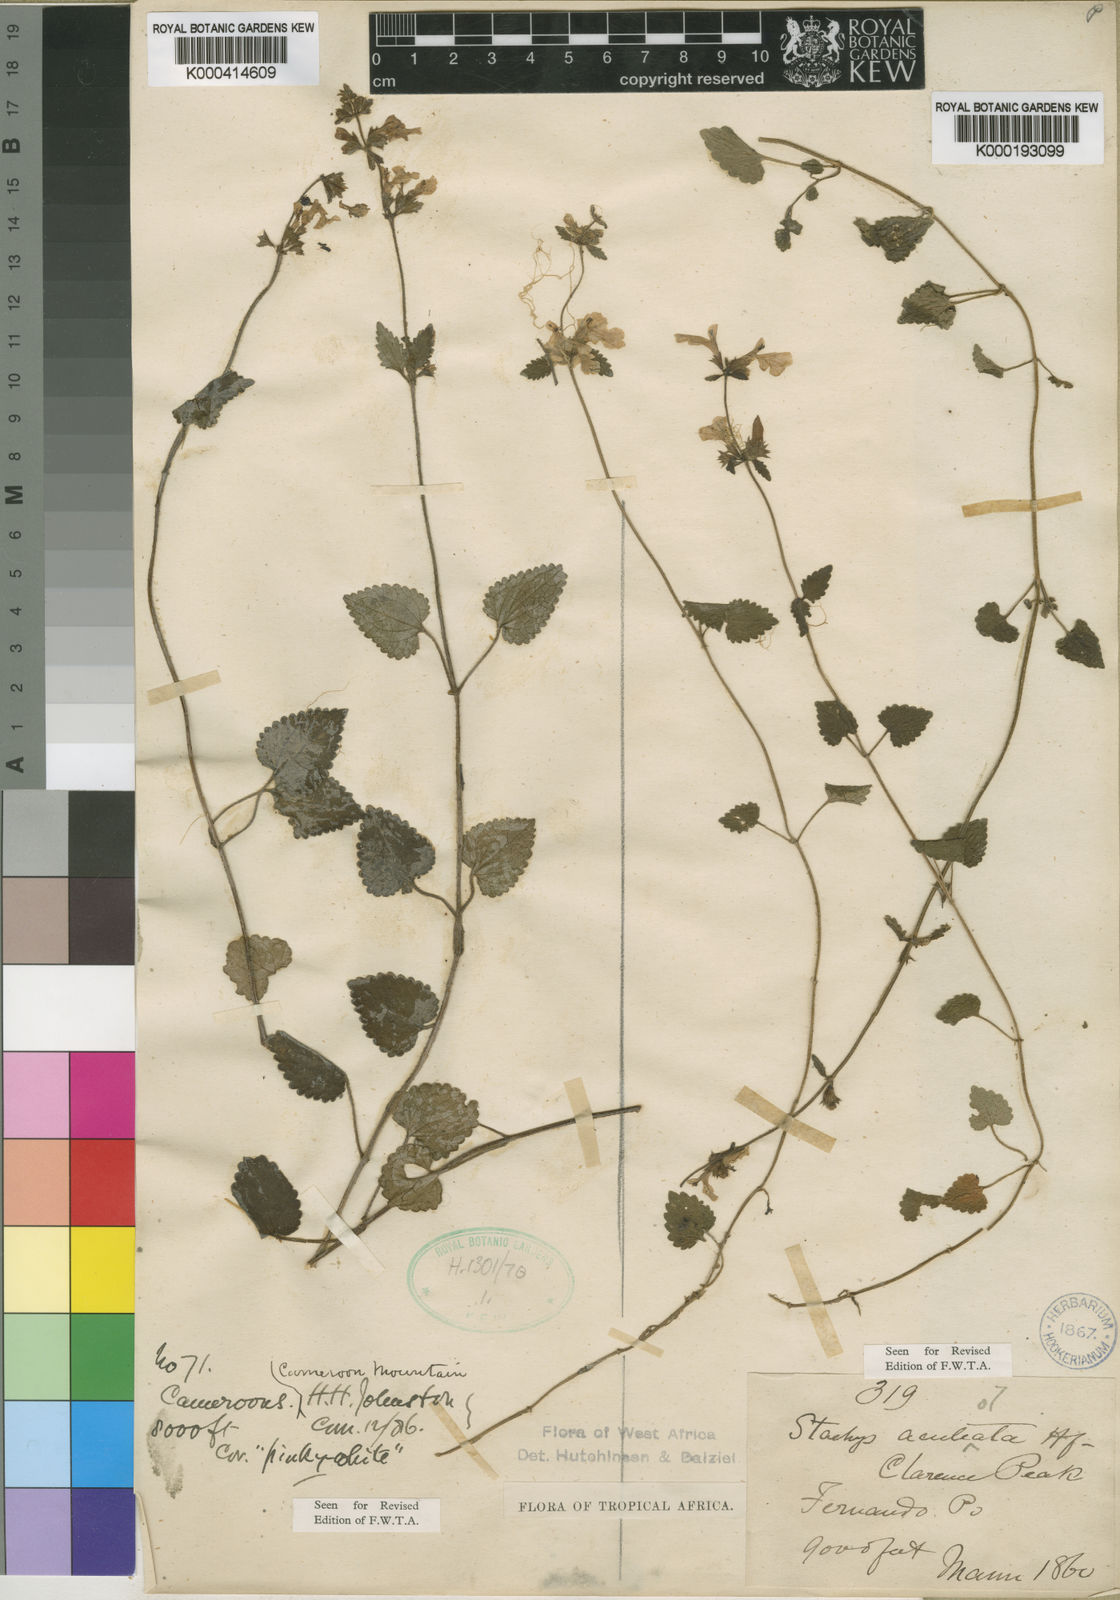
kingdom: Plantae
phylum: Tracheophyta
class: Magnoliopsida
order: Lamiales
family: Lamiaceae
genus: Stachys
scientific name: Stachys aculeolata
